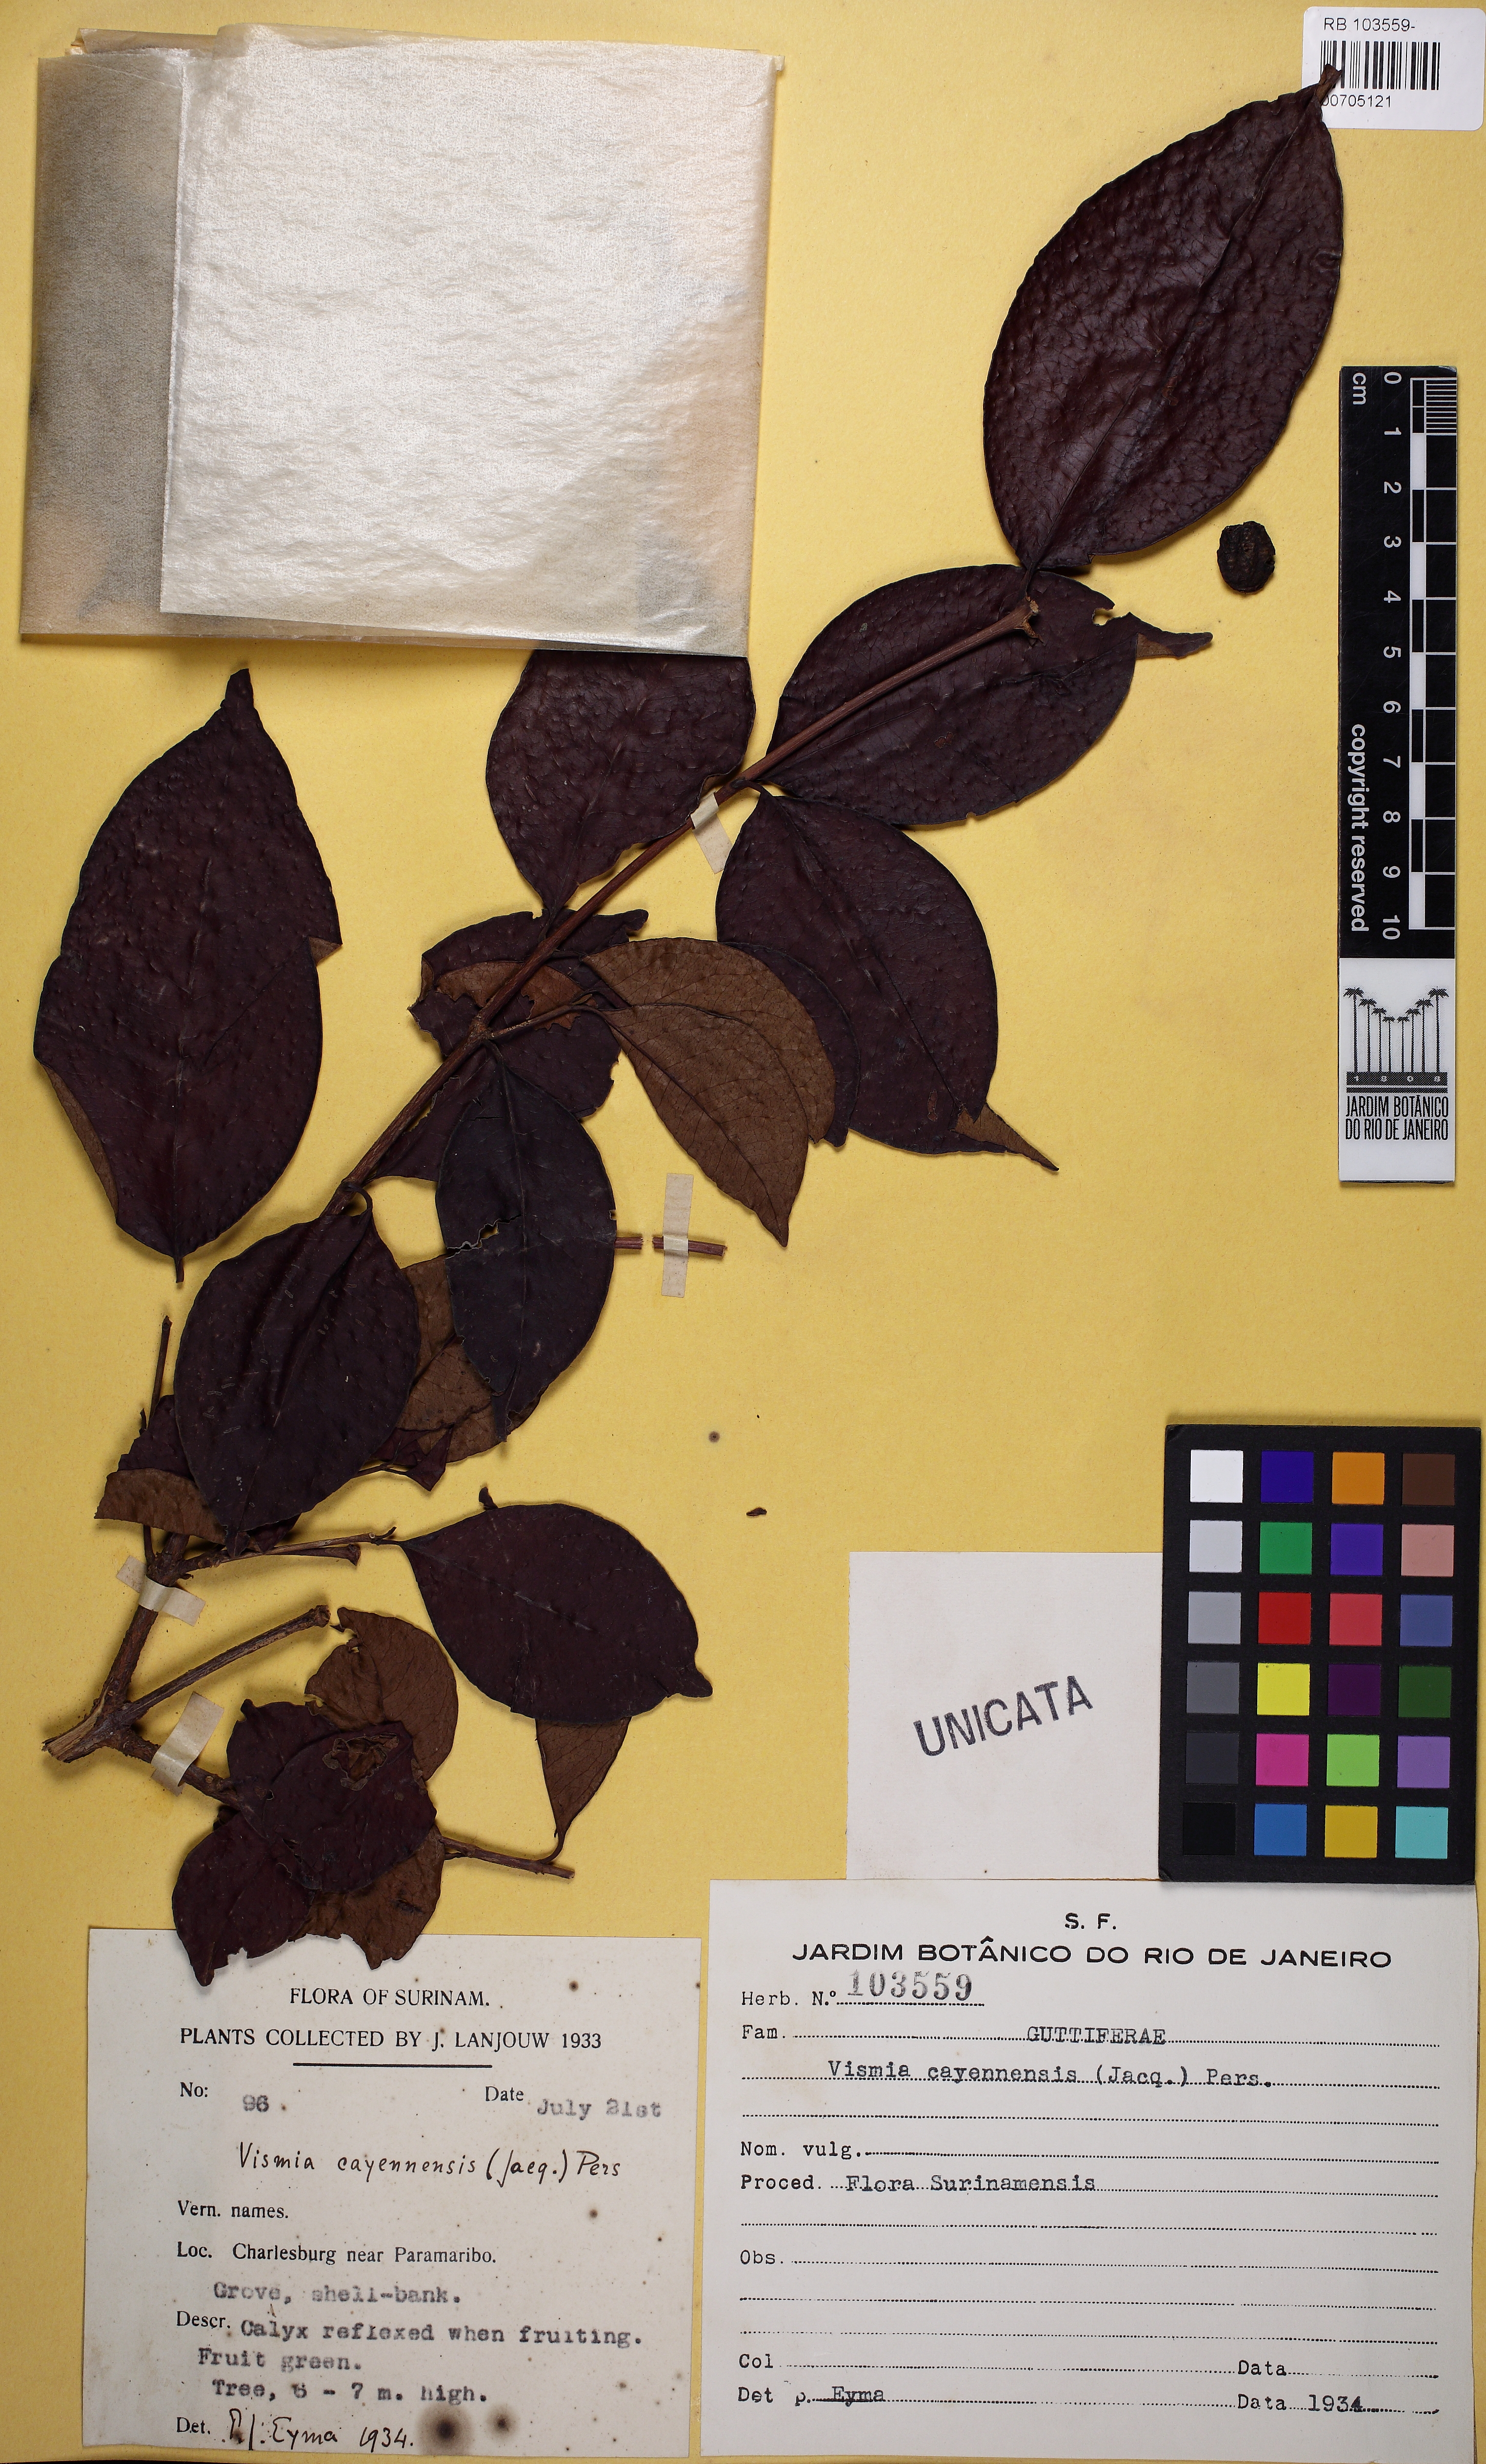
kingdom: Plantae
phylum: Tracheophyta
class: Magnoliopsida
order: Malpighiales
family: Hypericaceae
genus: Vismia
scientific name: Vismia cayennensis
